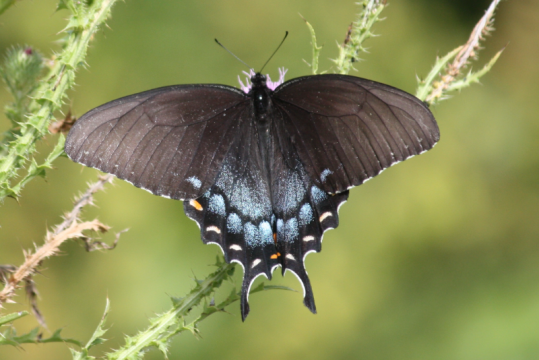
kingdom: Animalia
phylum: Arthropoda
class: Insecta
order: Lepidoptera
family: Papilionidae
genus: Pterourus
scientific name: Pterourus glaucus
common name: Eastern Tiger Swallowtail
